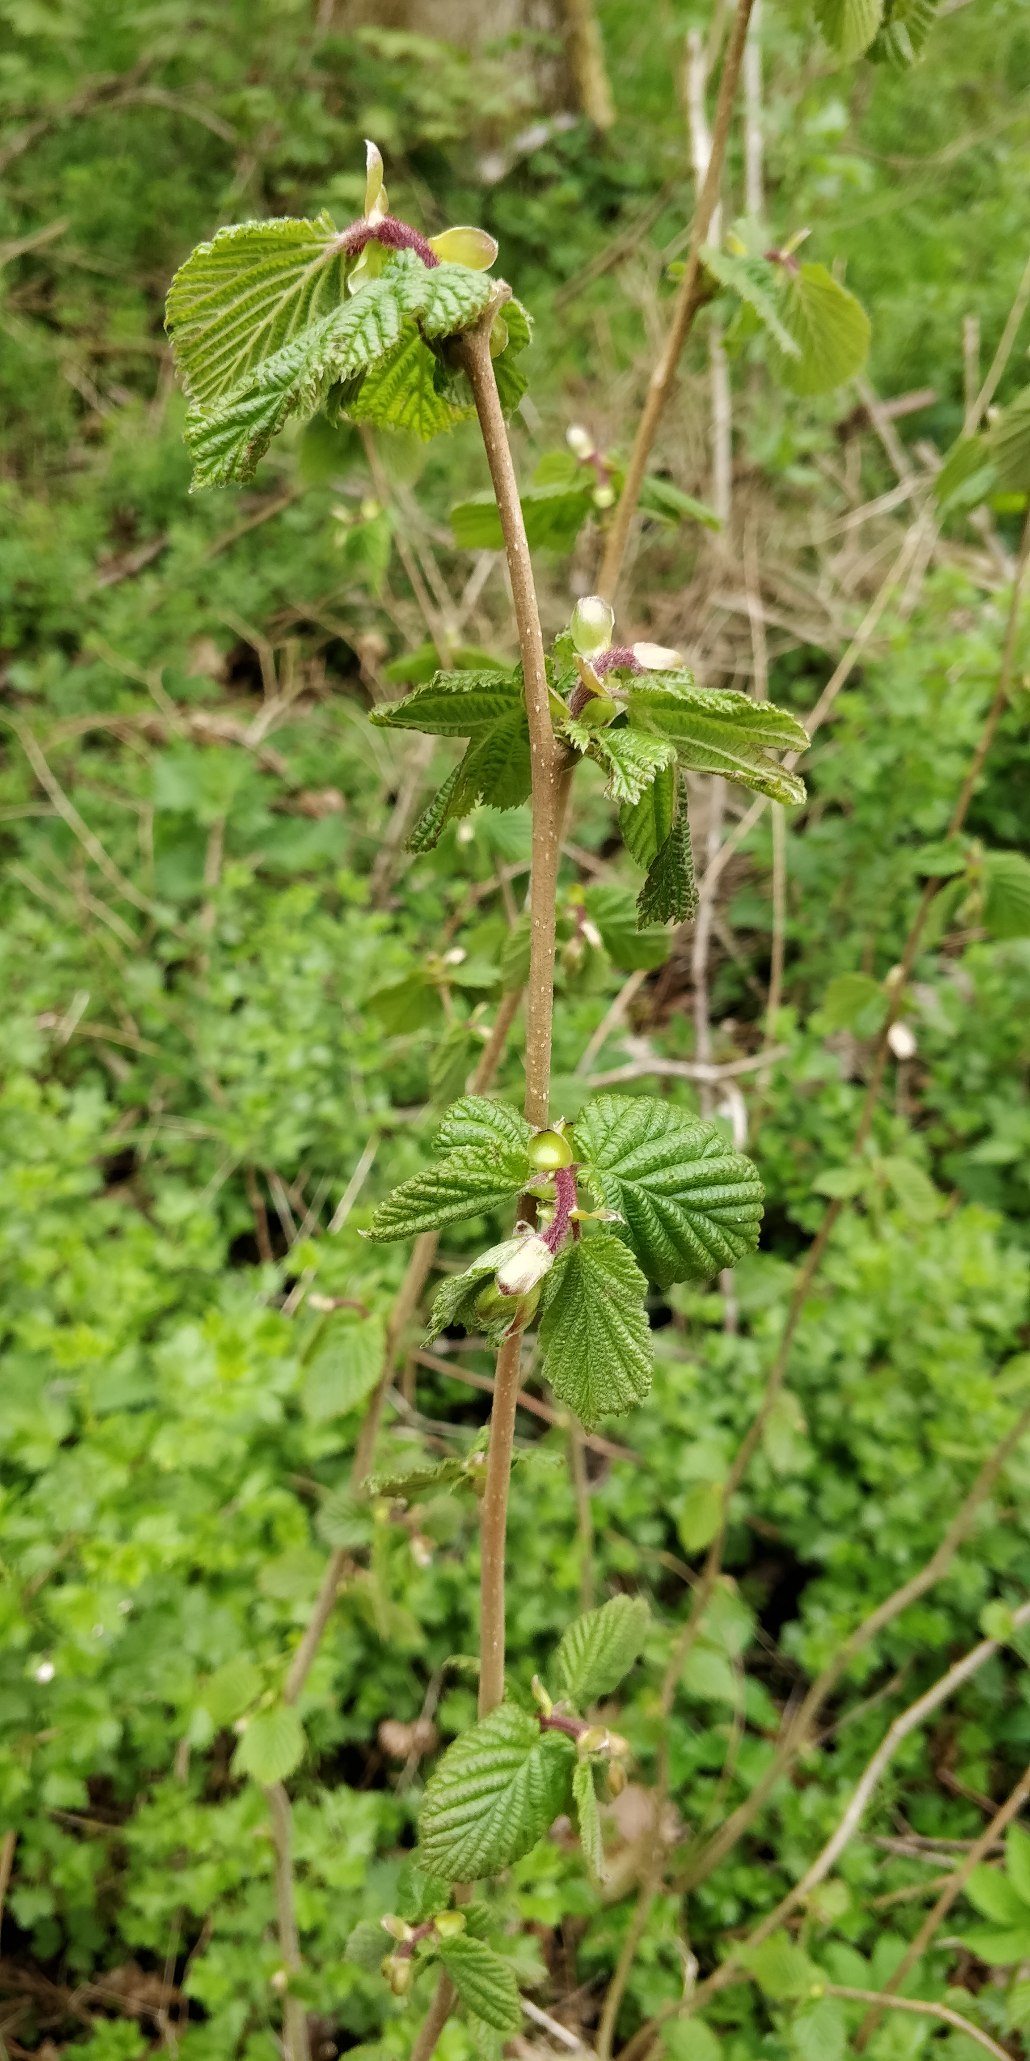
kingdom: Plantae
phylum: Tracheophyta
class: Magnoliopsida
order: Fagales
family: Betulaceae
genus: Corylus
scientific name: Corylus avellana
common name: Hassel
